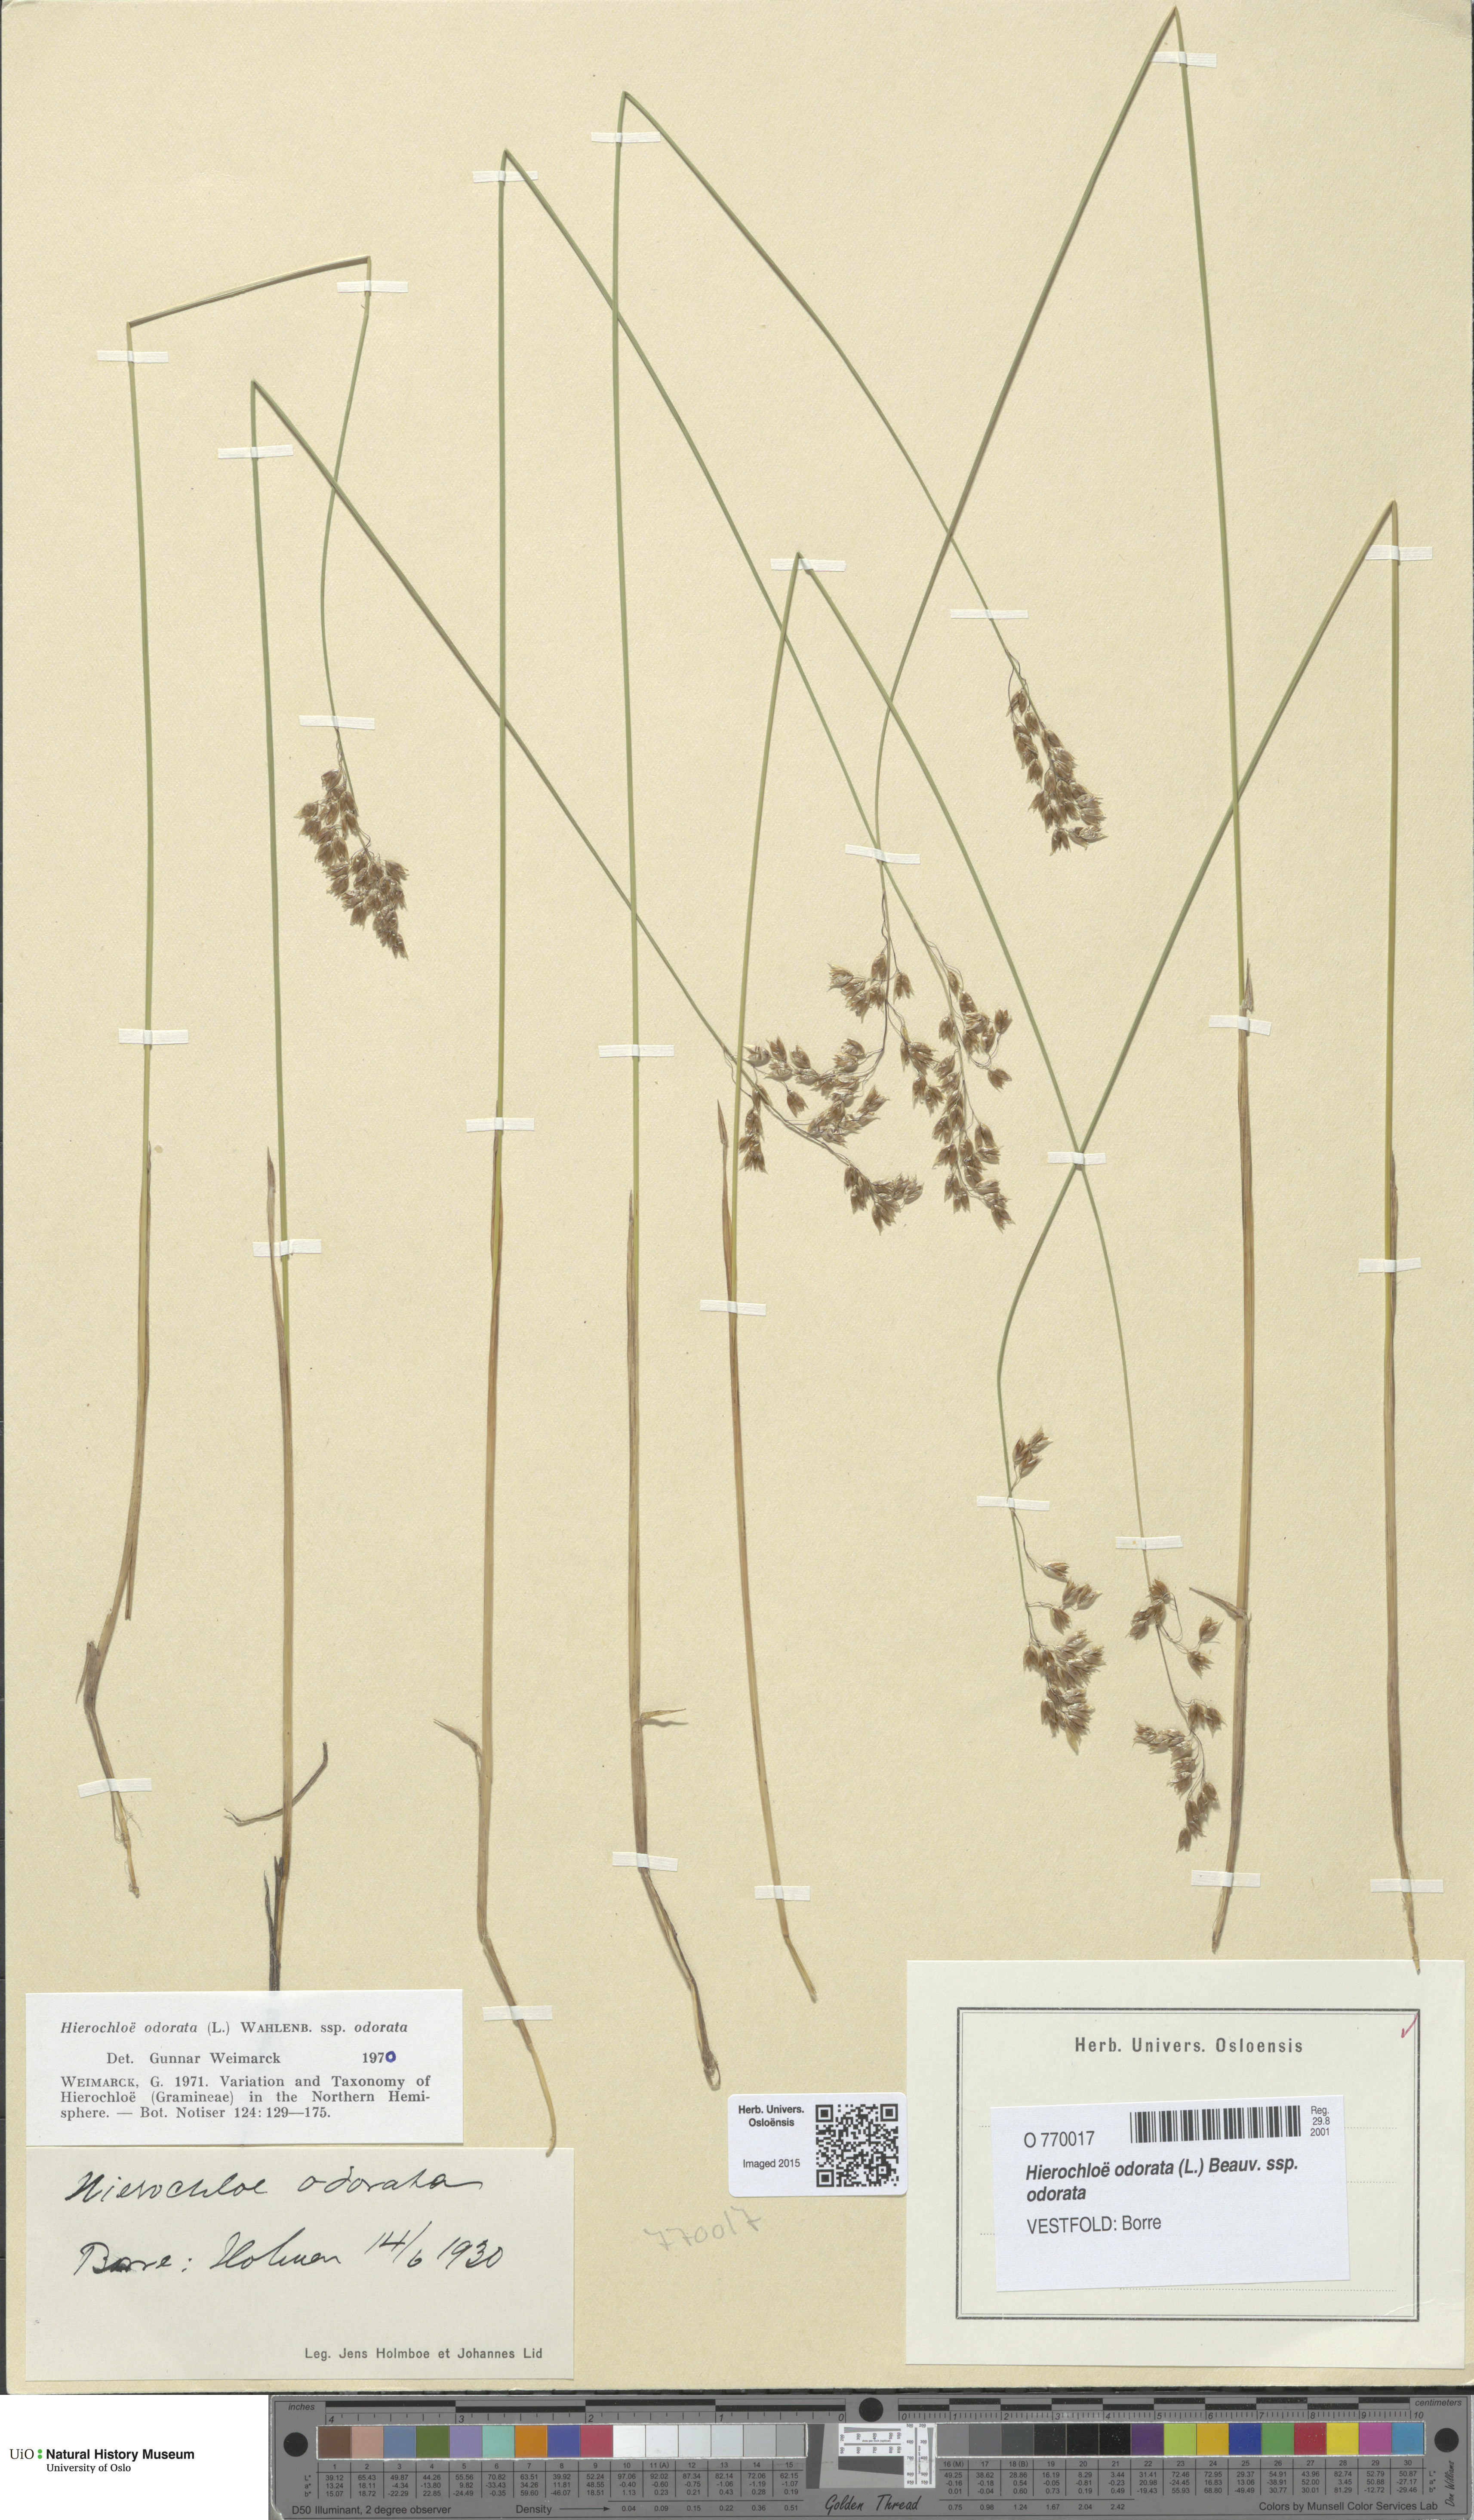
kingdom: Plantae
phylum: Tracheophyta
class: Liliopsida
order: Poales
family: Poaceae
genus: Anthoxanthum
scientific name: Anthoxanthum nitens
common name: Holy grass
